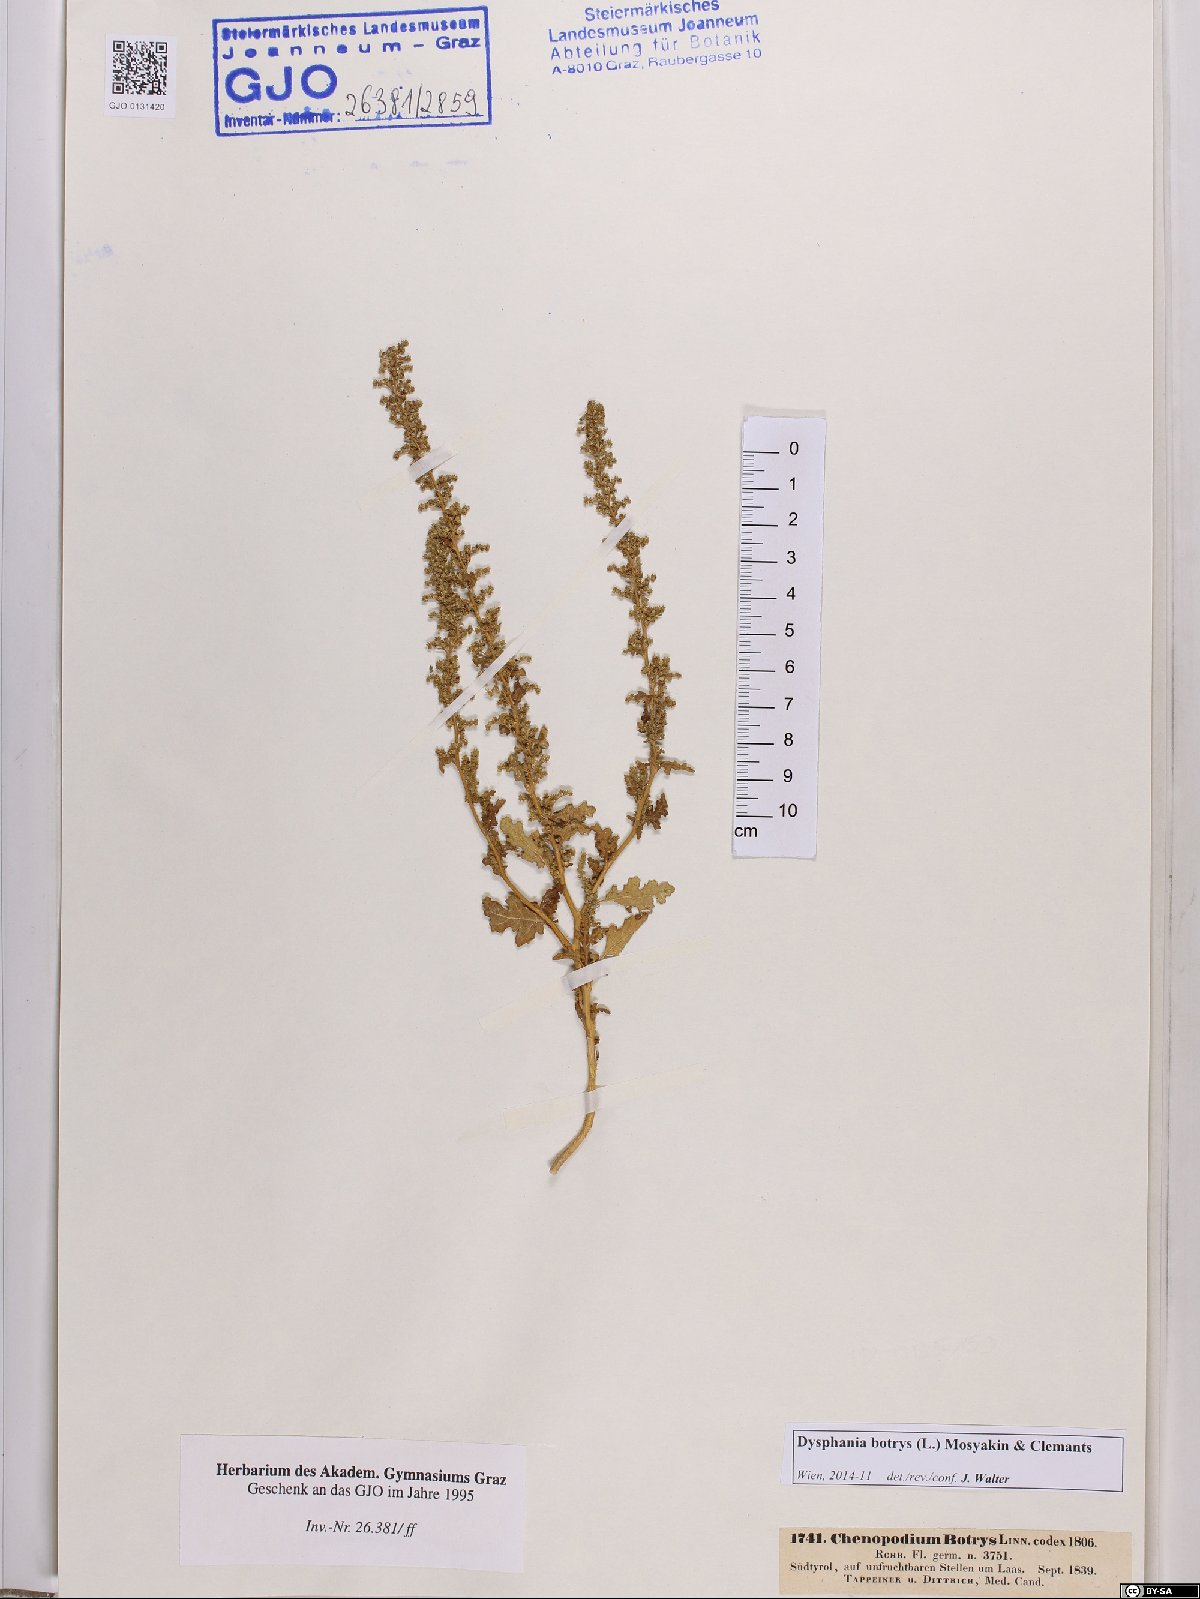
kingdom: Plantae
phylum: Tracheophyta
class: Magnoliopsida
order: Caryophyllales
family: Amaranthaceae
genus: Dysphania
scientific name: Dysphania botrys
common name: Feather-geranium
